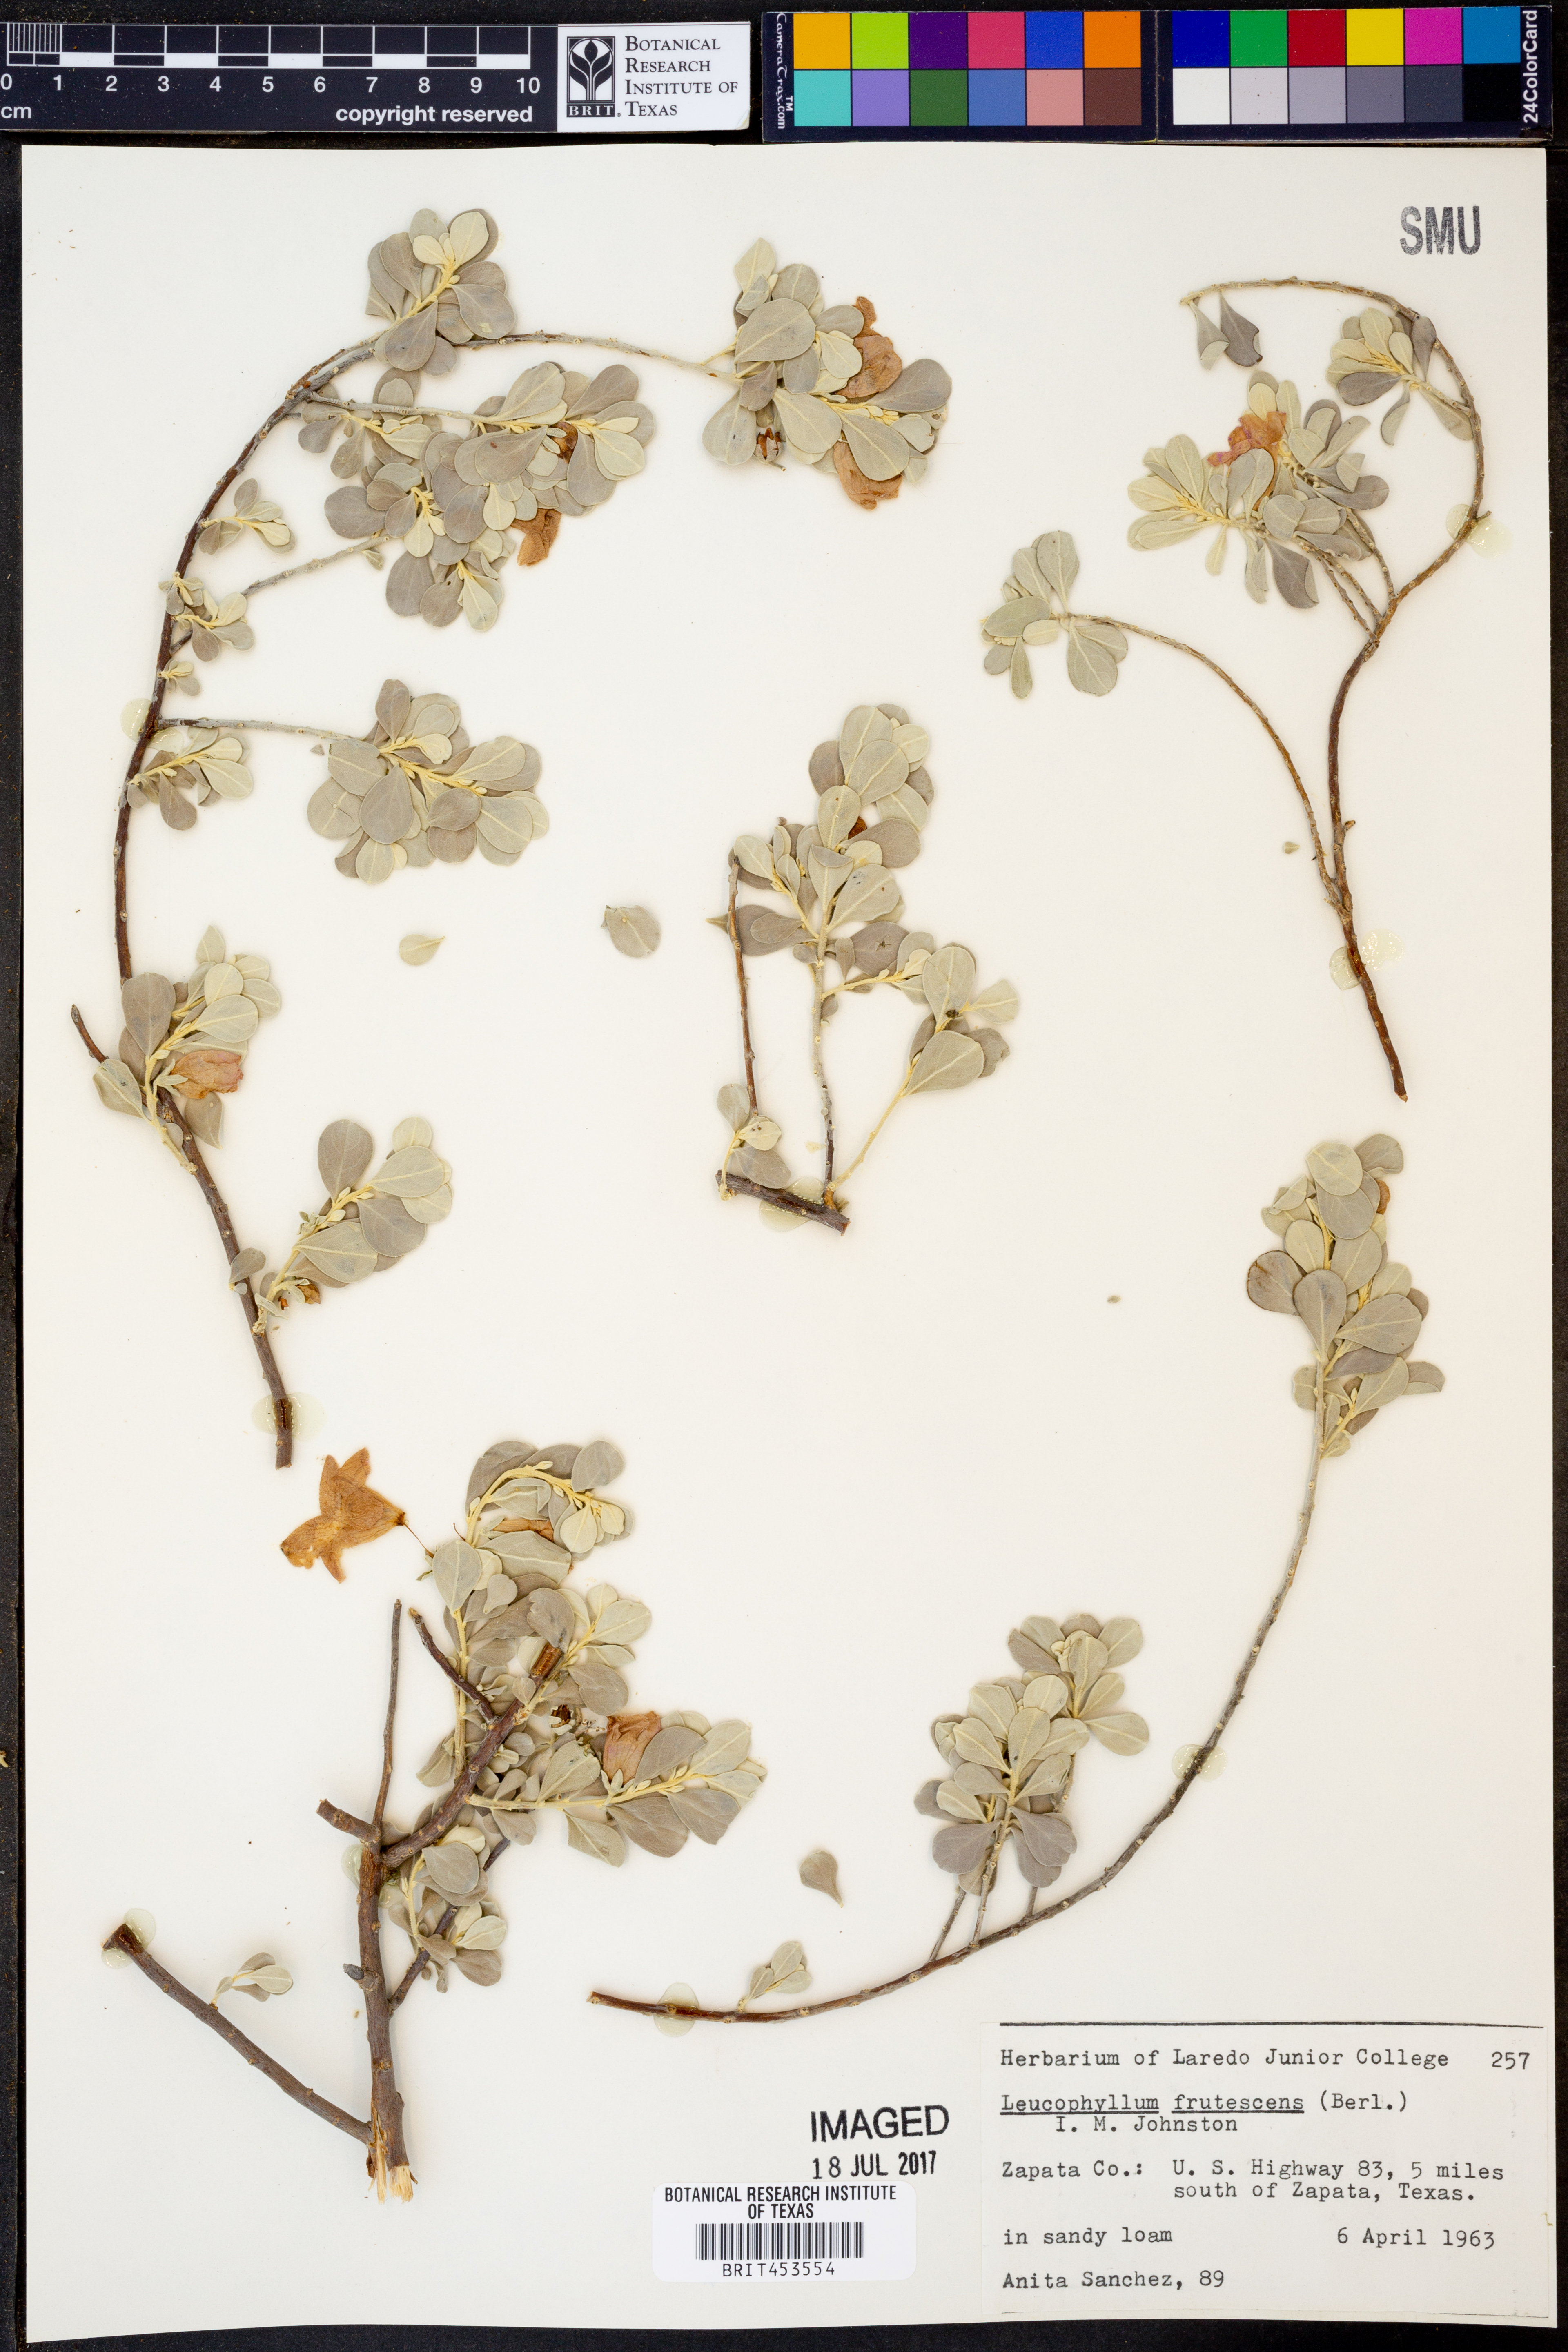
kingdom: Plantae
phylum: Tracheophyta
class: Magnoliopsida
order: Lamiales
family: Scrophulariaceae
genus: Leucophyllum
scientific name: Leucophyllum frutescens
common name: Texas silverleaf
